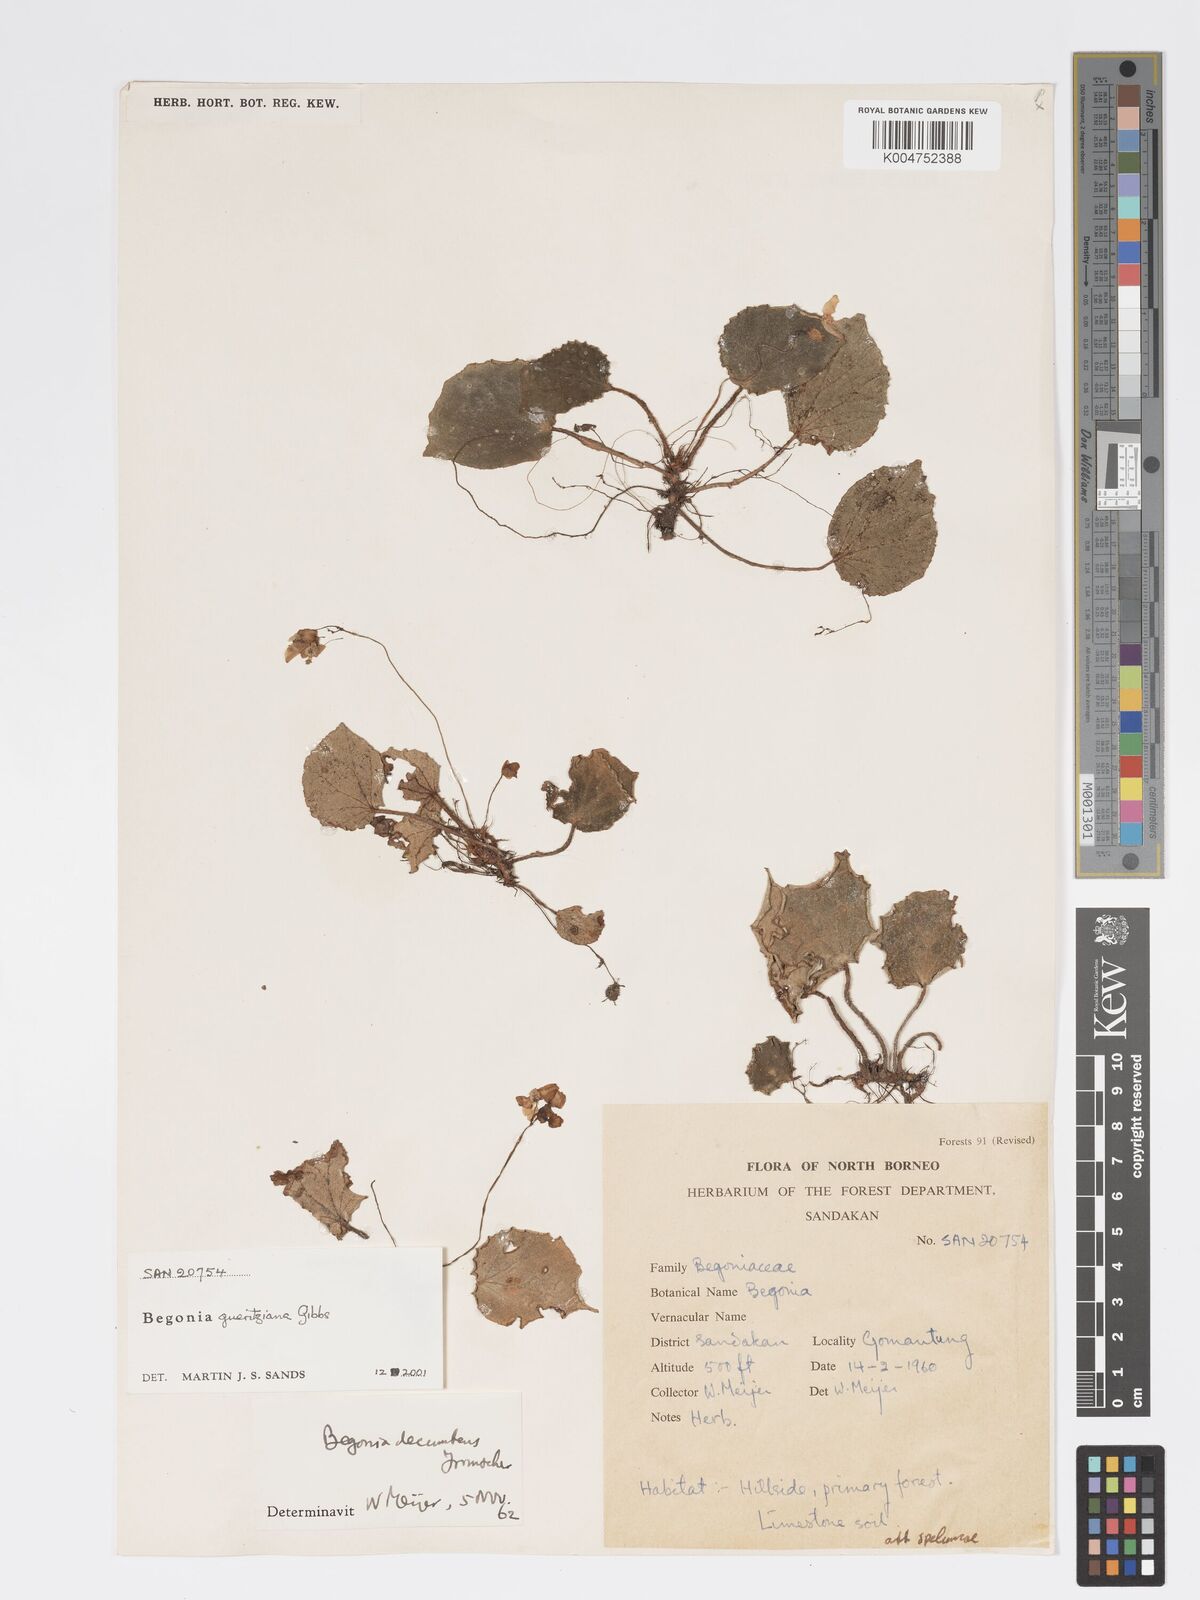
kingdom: Plantae
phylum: Tracheophyta
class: Magnoliopsida
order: Cucurbitales
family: Begoniaceae
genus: Begonia
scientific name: Begonia gueritziana
